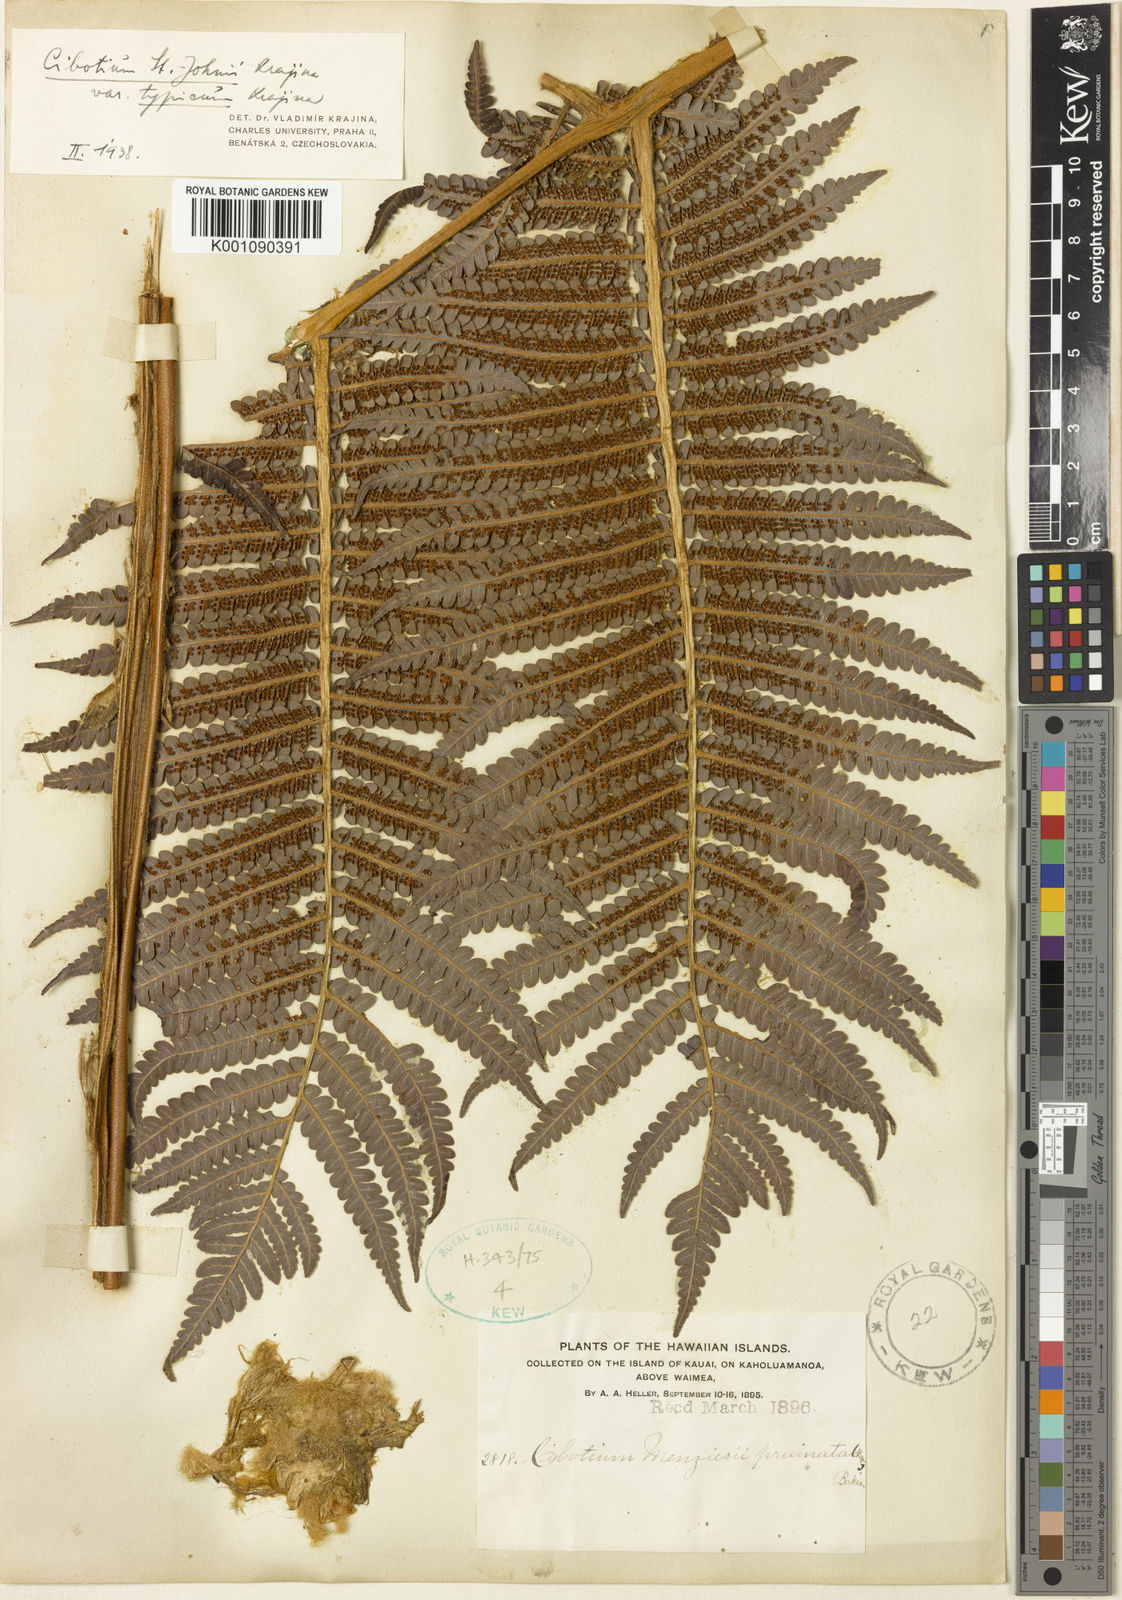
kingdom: Plantae
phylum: Tracheophyta
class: Polypodiopsida
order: Cyatheales
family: Cibotiaceae
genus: Cibotium
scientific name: Cibotium glaucum
